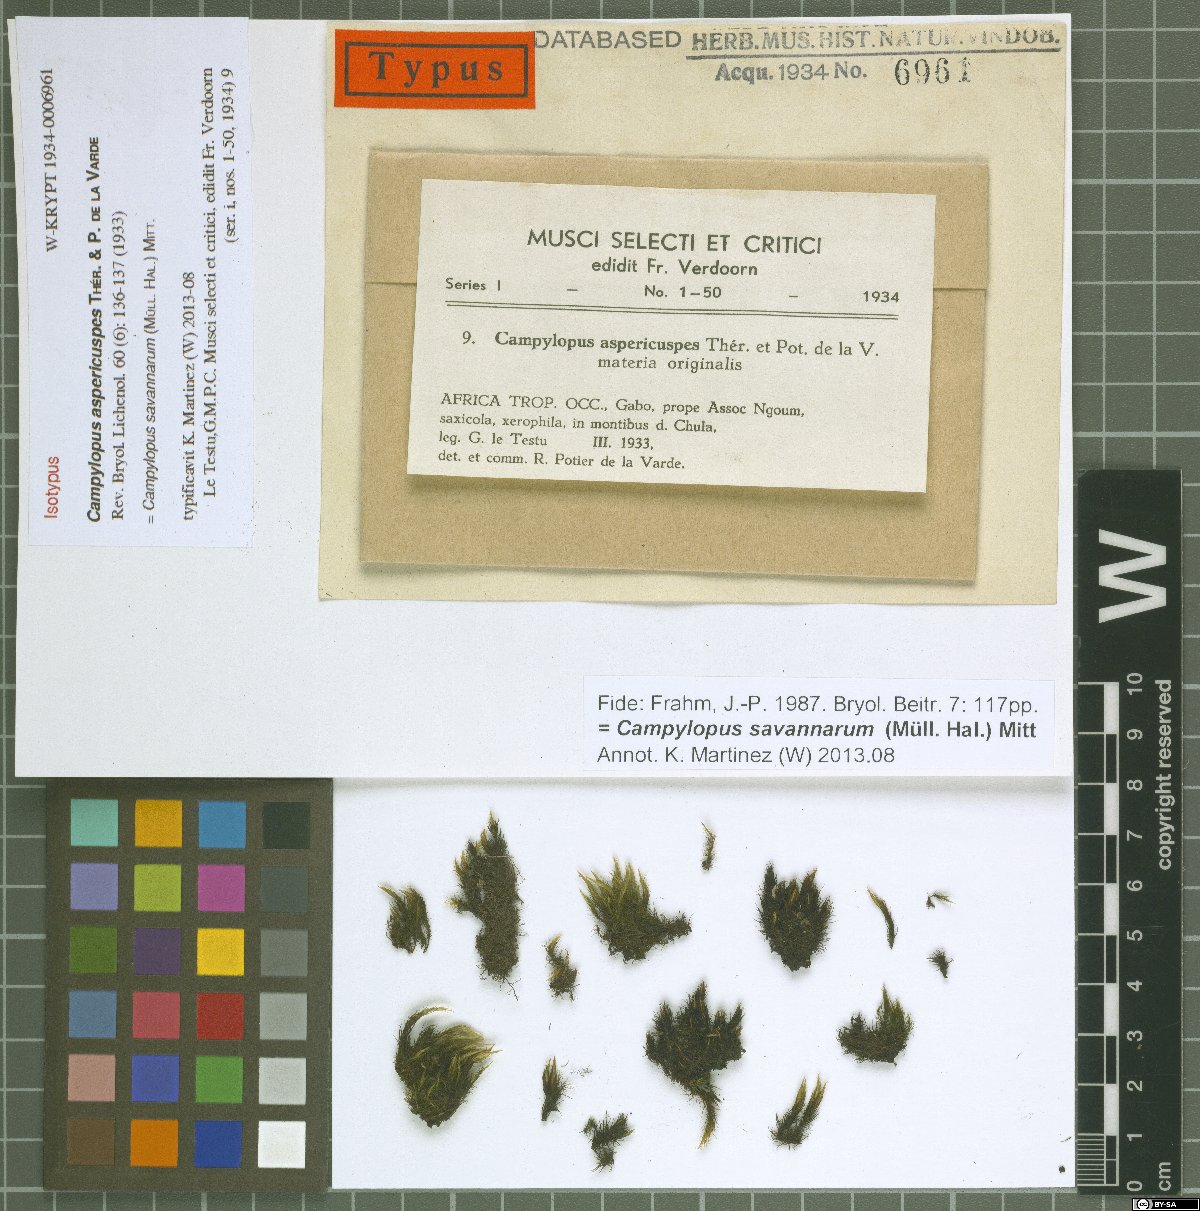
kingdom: Plantae
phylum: Bryophyta
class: Bryopsida
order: Dicranales
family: Leucobryaceae
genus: Campylopus
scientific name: Campylopus savannarum
